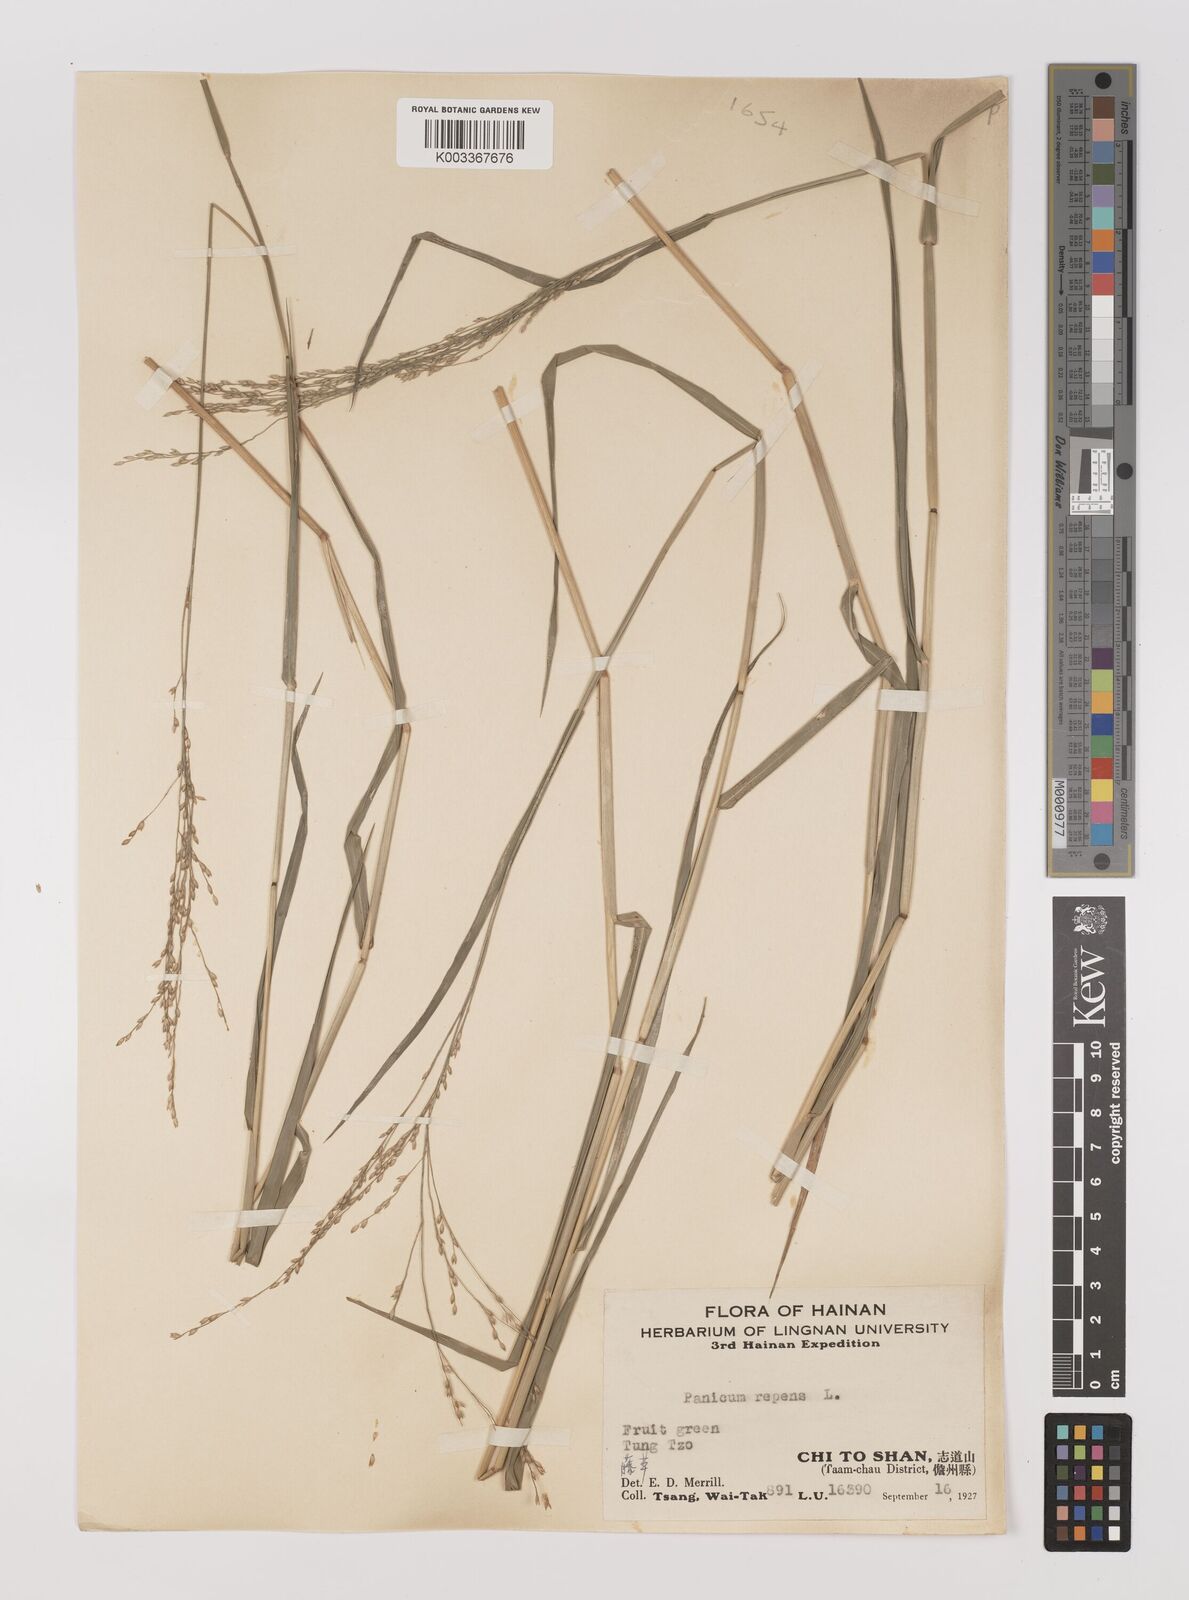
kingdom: Plantae
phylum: Tracheophyta
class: Liliopsida
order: Poales
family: Poaceae
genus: Panicum
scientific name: Panicum repens
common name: Torpedo grass
